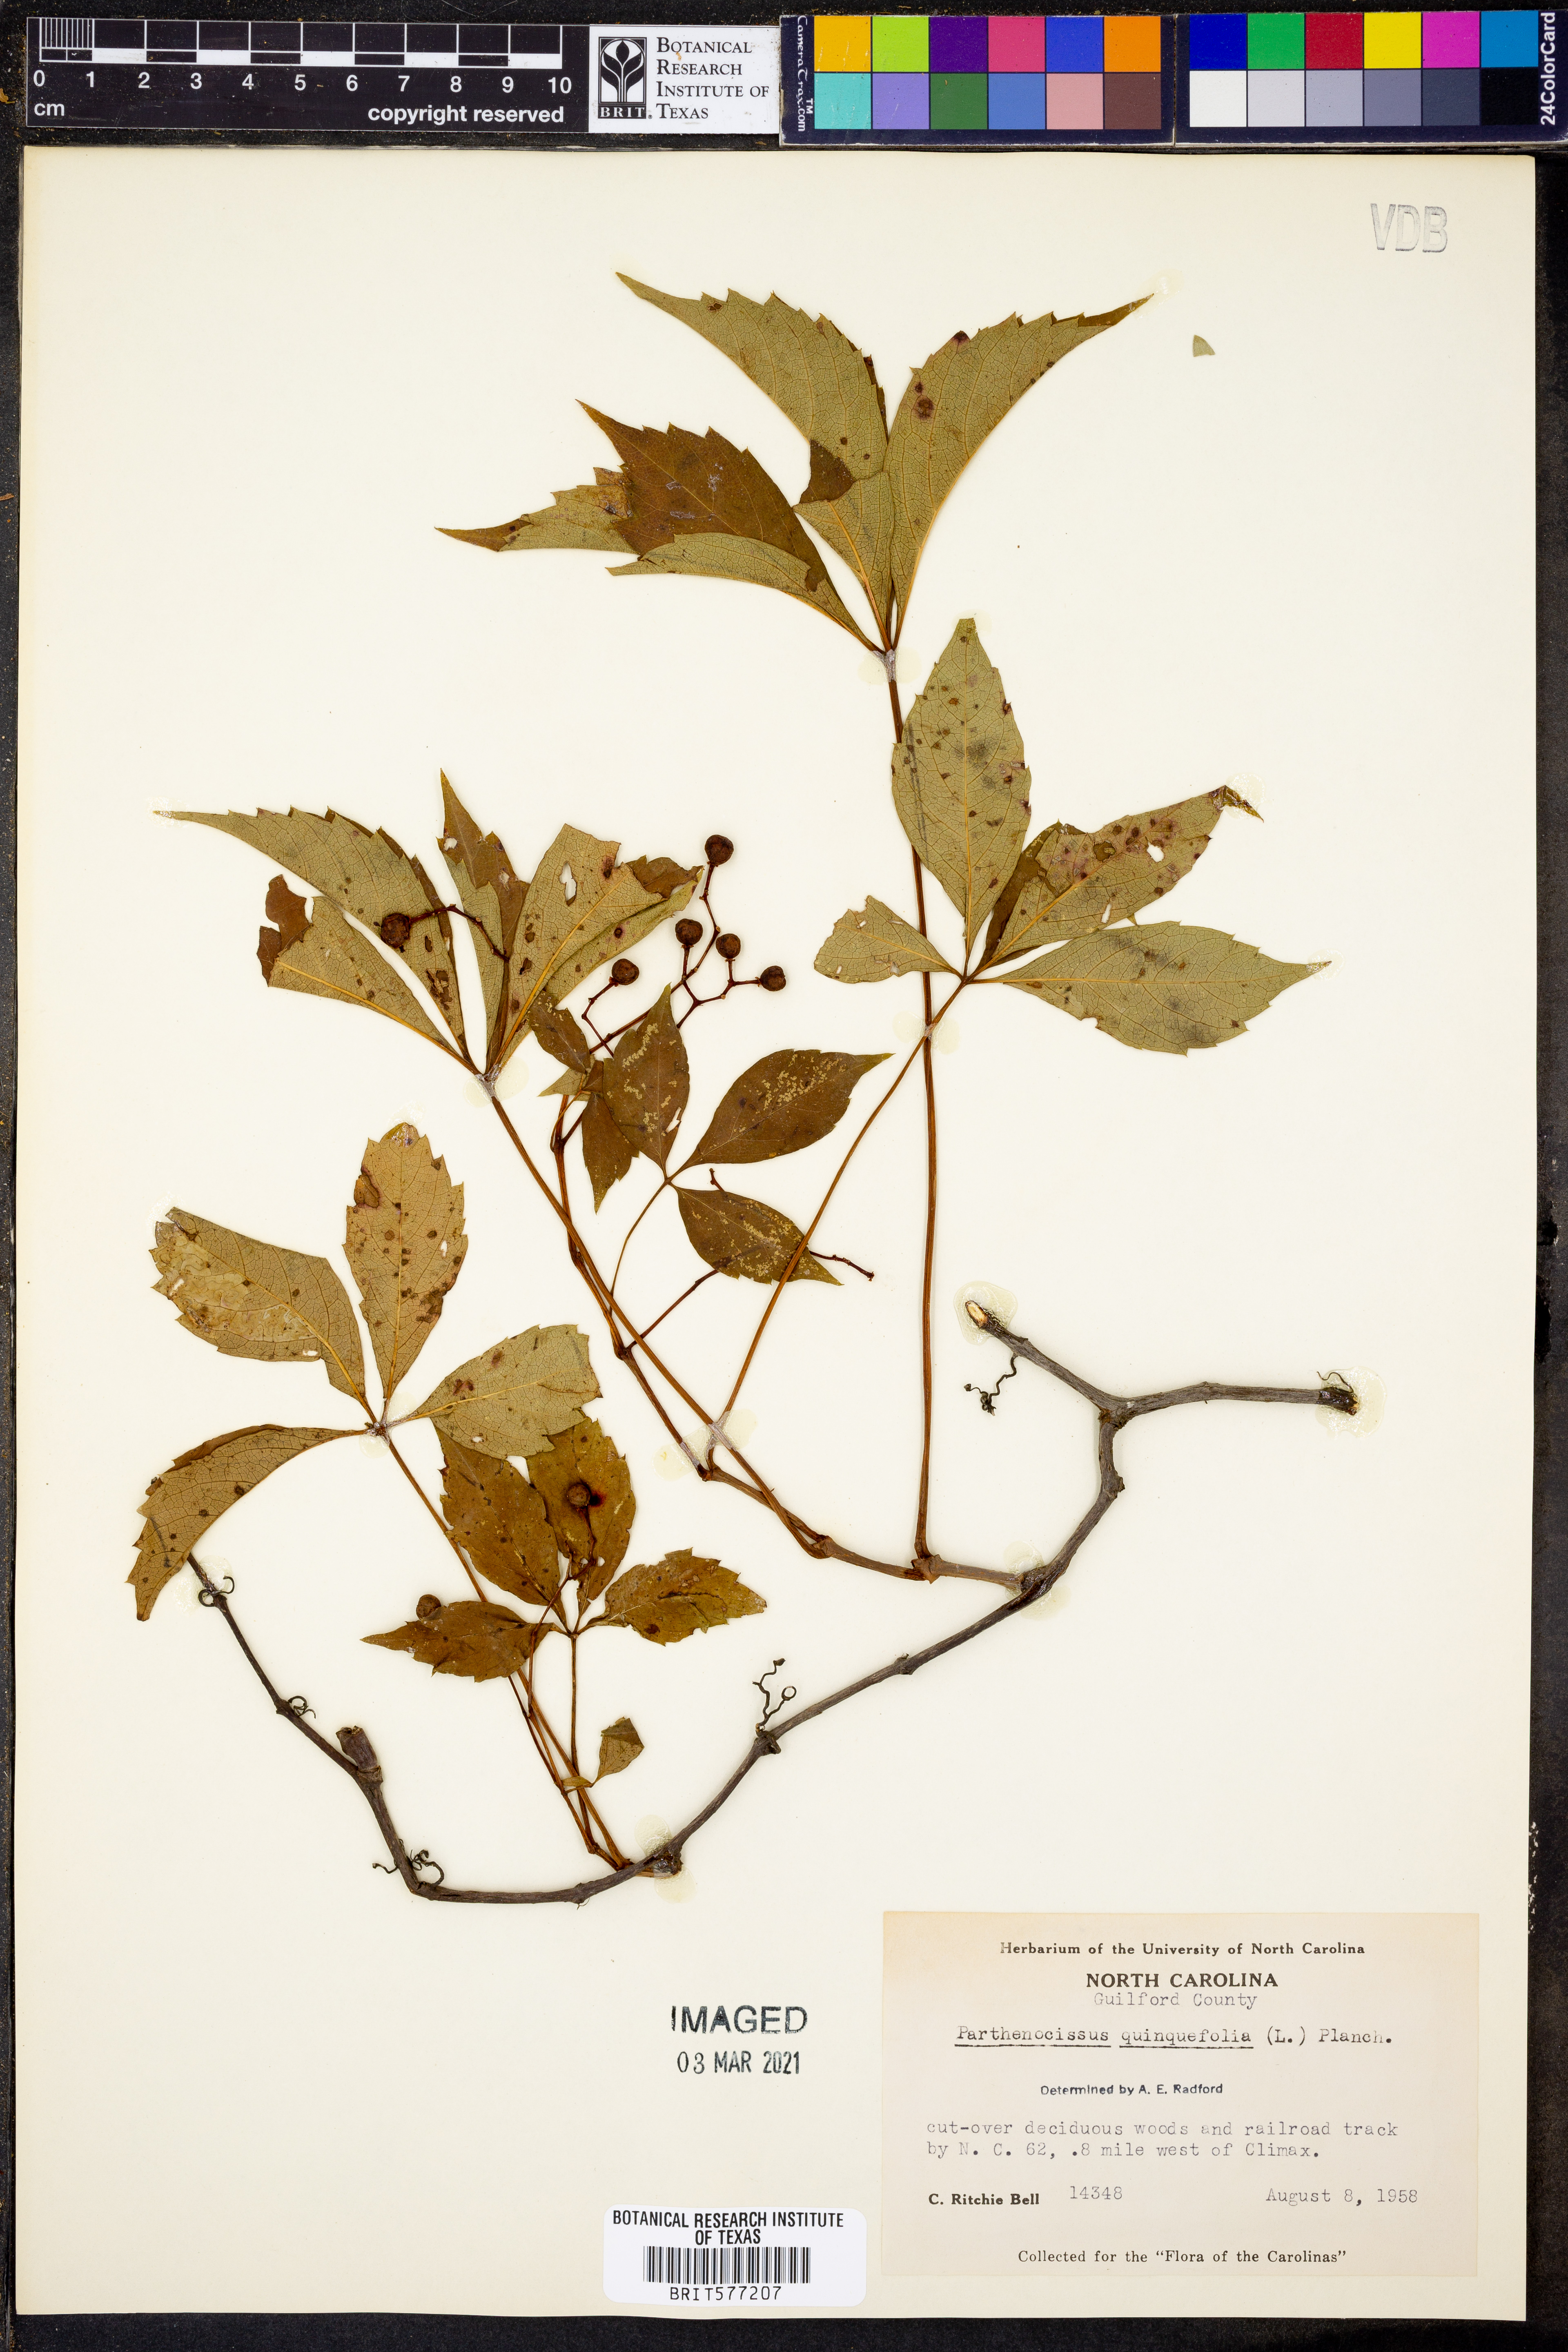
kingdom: Plantae
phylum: Tracheophyta
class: Magnoliopsida
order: Vitales
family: Vitaceae
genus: Parthenocissus
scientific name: Parthenocissus quinquefolia
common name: Virginia-creeper
